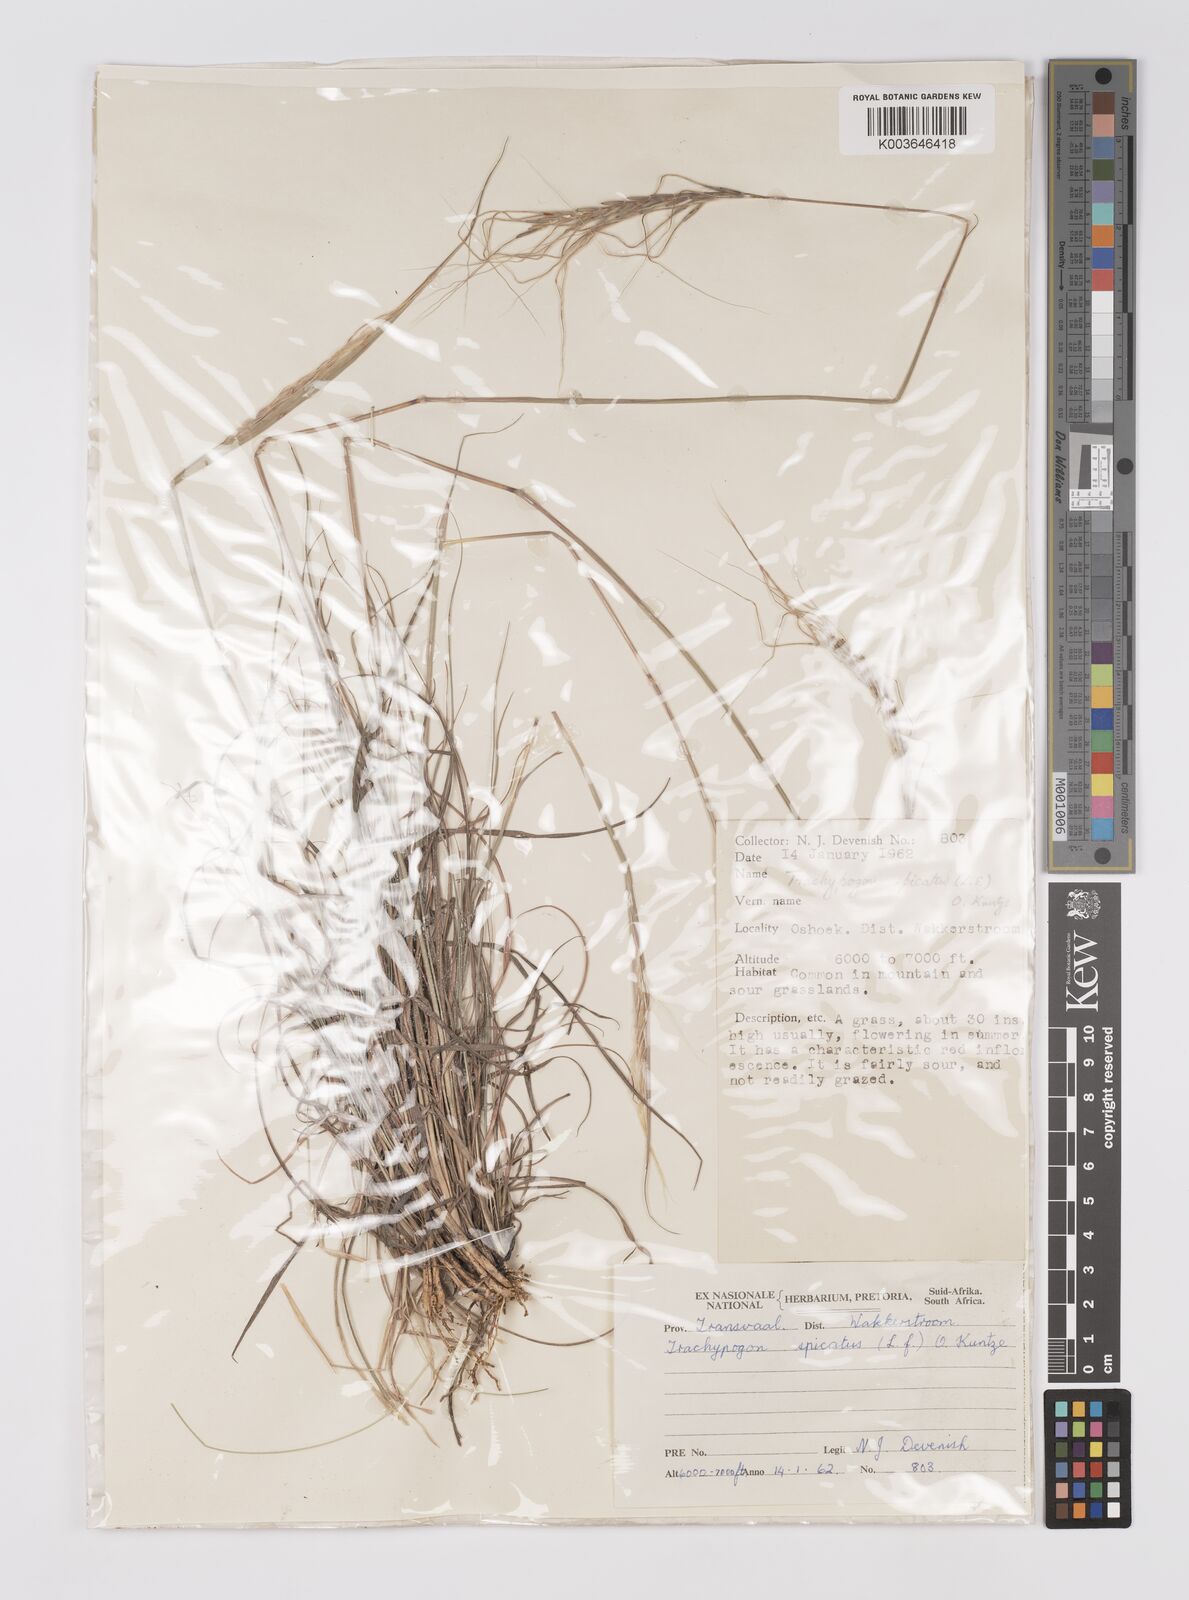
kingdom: Plantae
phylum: Tracheophyta
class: Liliopsida
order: Poales
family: Poaceae
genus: Trachypogon
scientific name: Trachypogon spicatus
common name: Crinkle-awn
